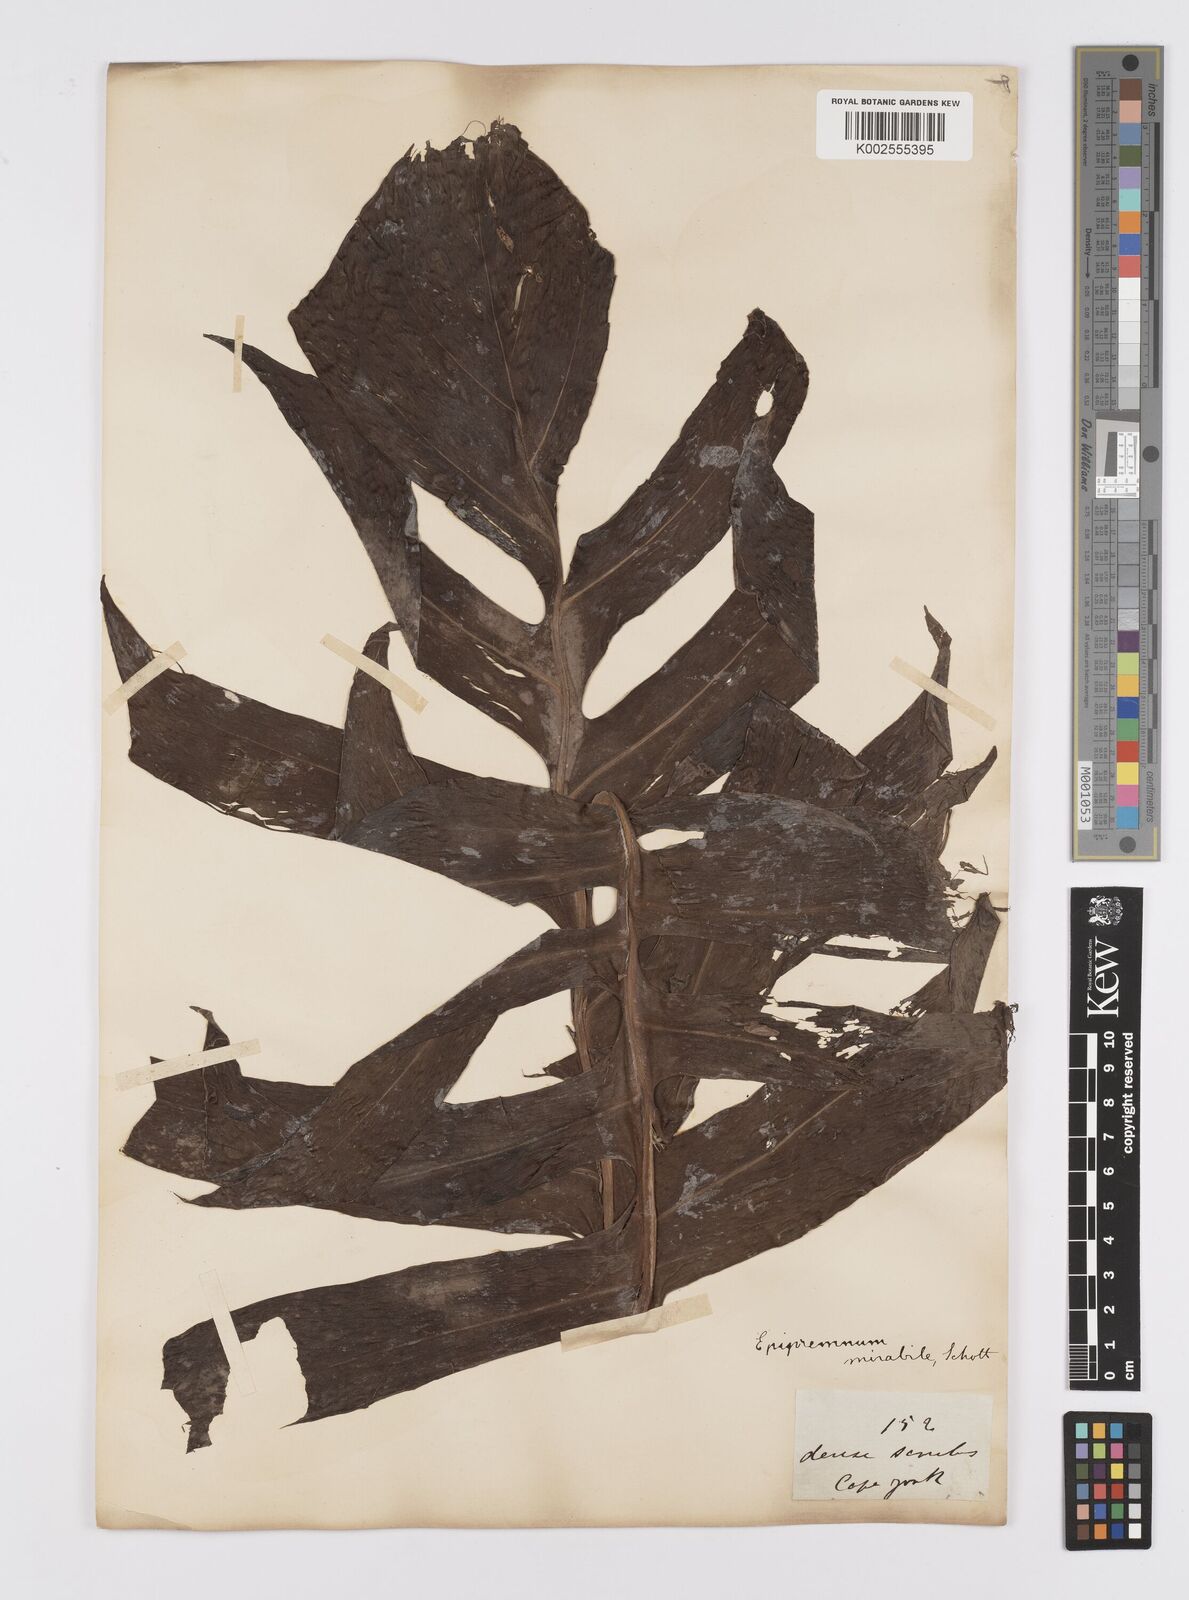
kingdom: Plantae
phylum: Tracheophyta
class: Liliopsida
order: Alismatales
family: Araceae
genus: Epipremnum
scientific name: Epipremnum pinnatum
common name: Centipede tongavine
